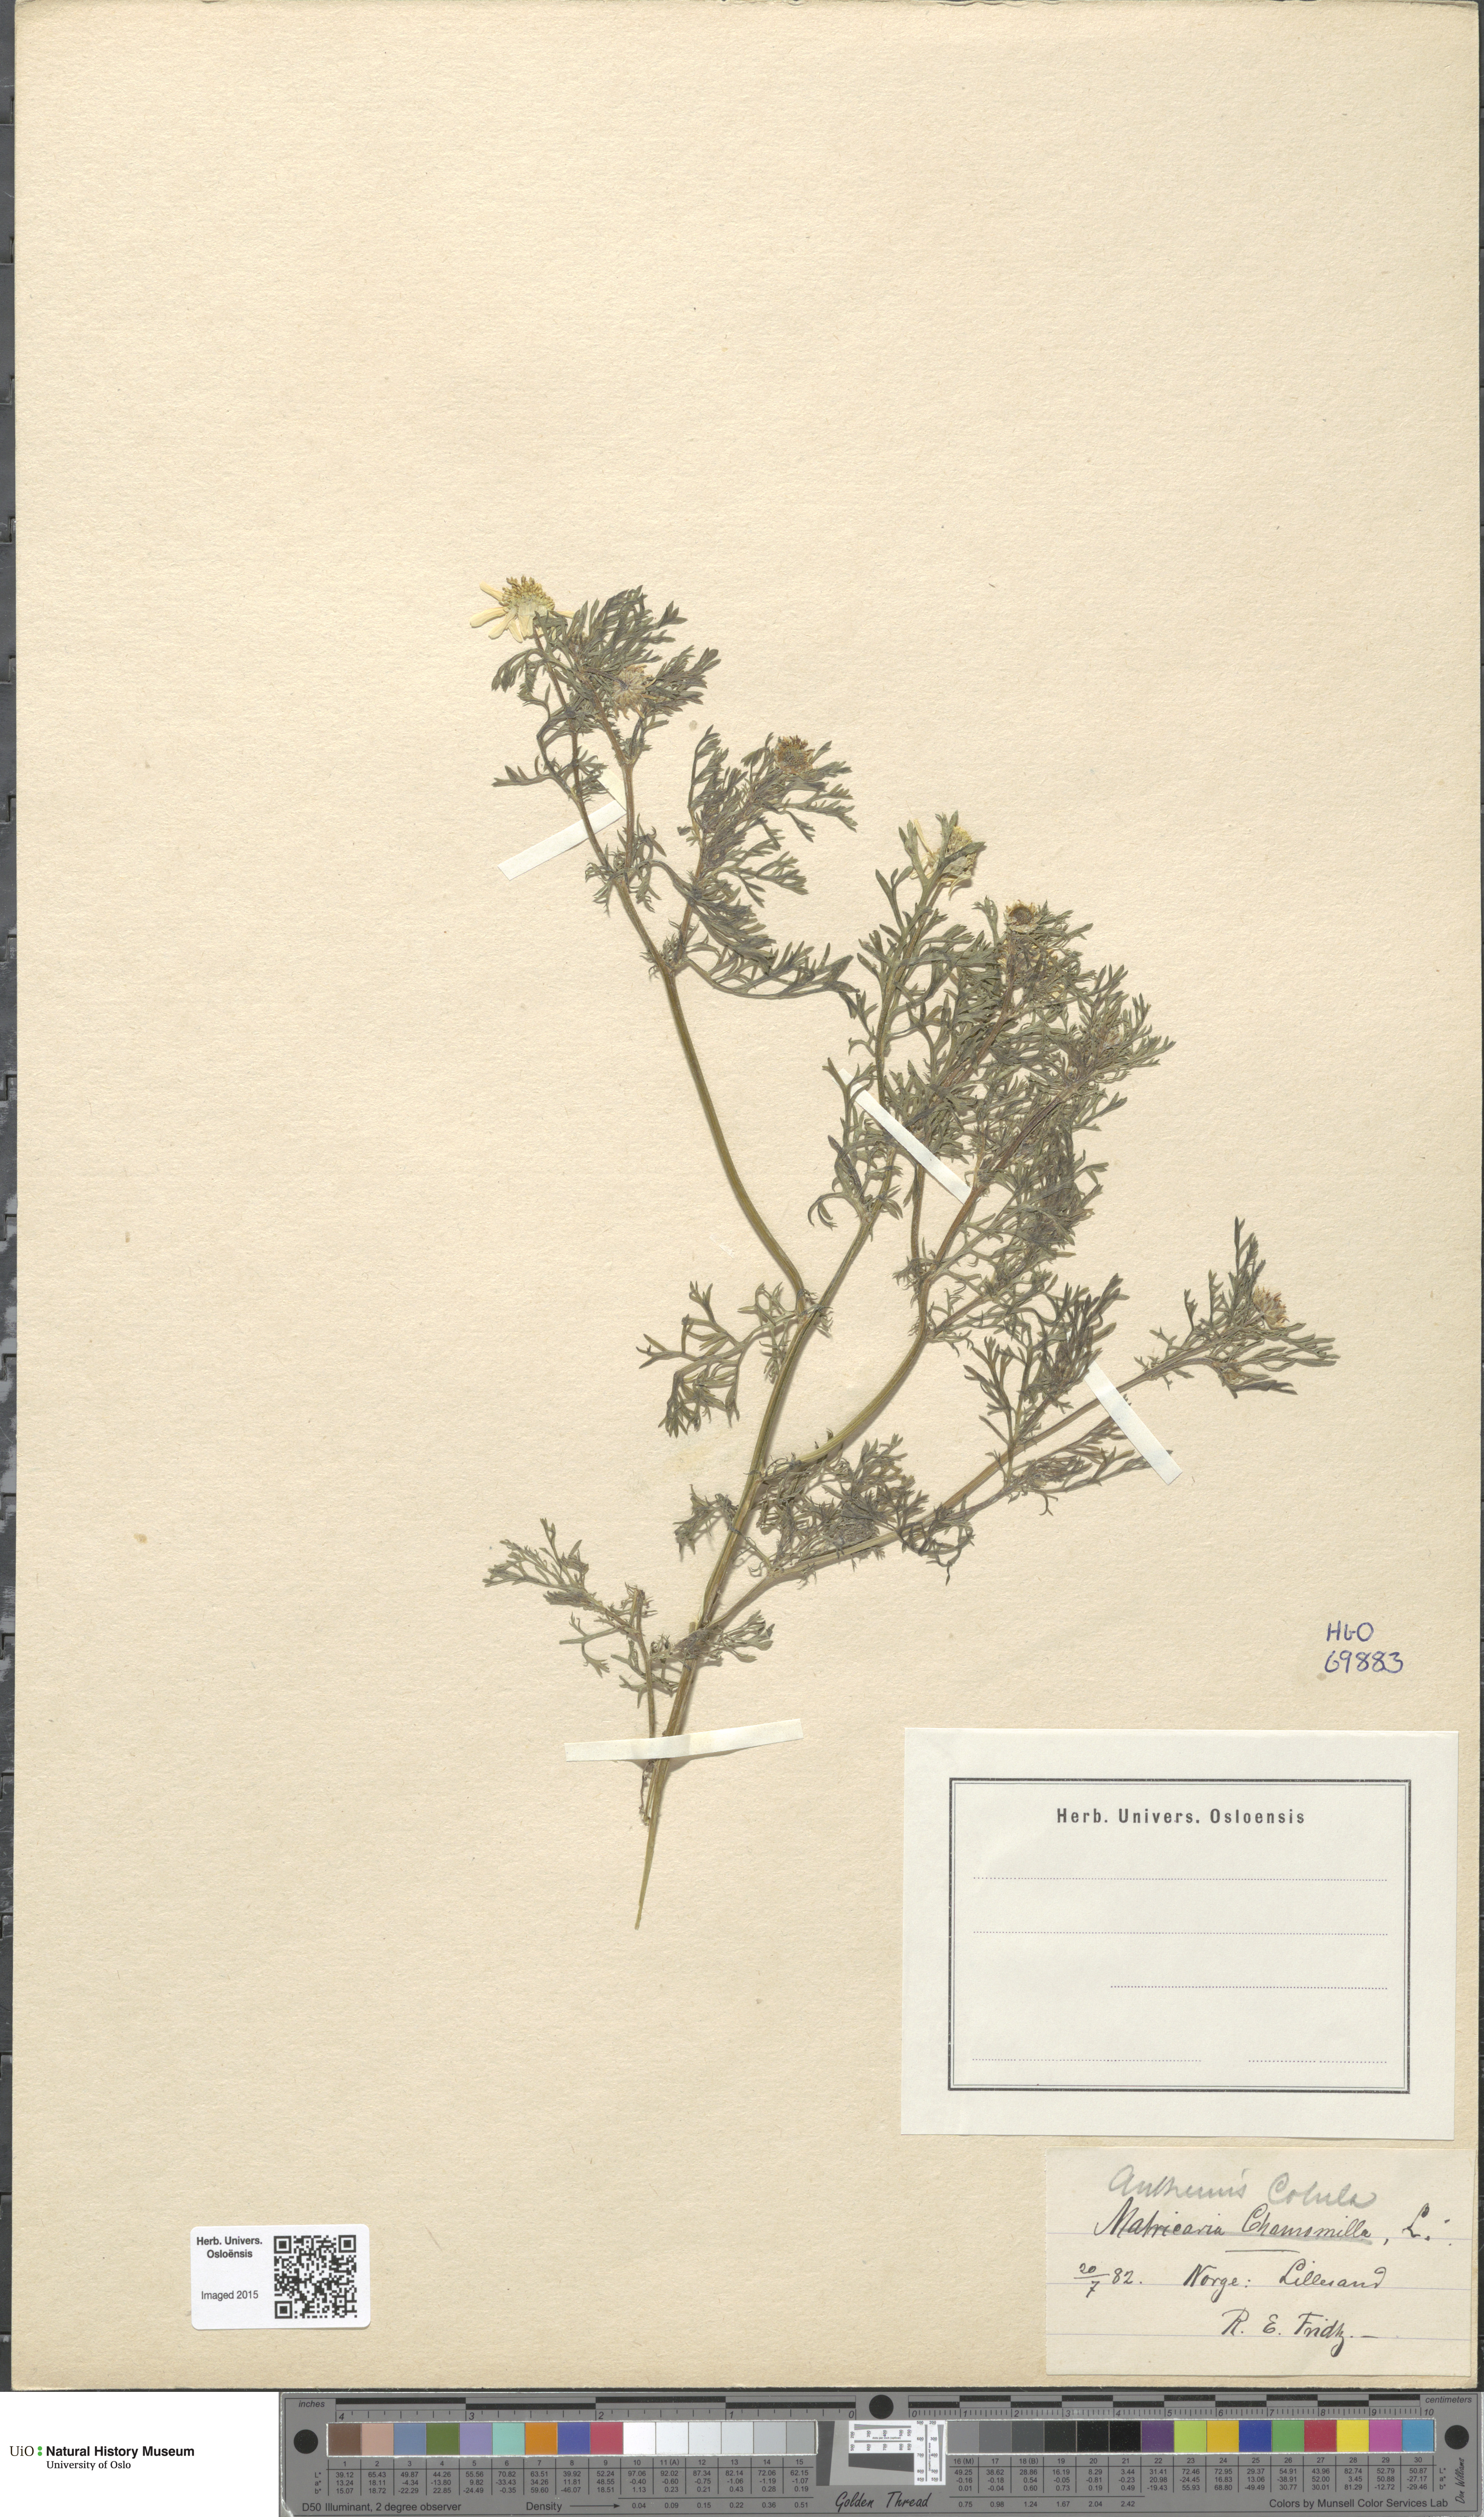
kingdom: Plantae
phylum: Tracheophyta
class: Magnoliopsida
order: Asterales
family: Asteraceae
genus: Anthemis
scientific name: Anthemis cotula
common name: Stinking chamomile
